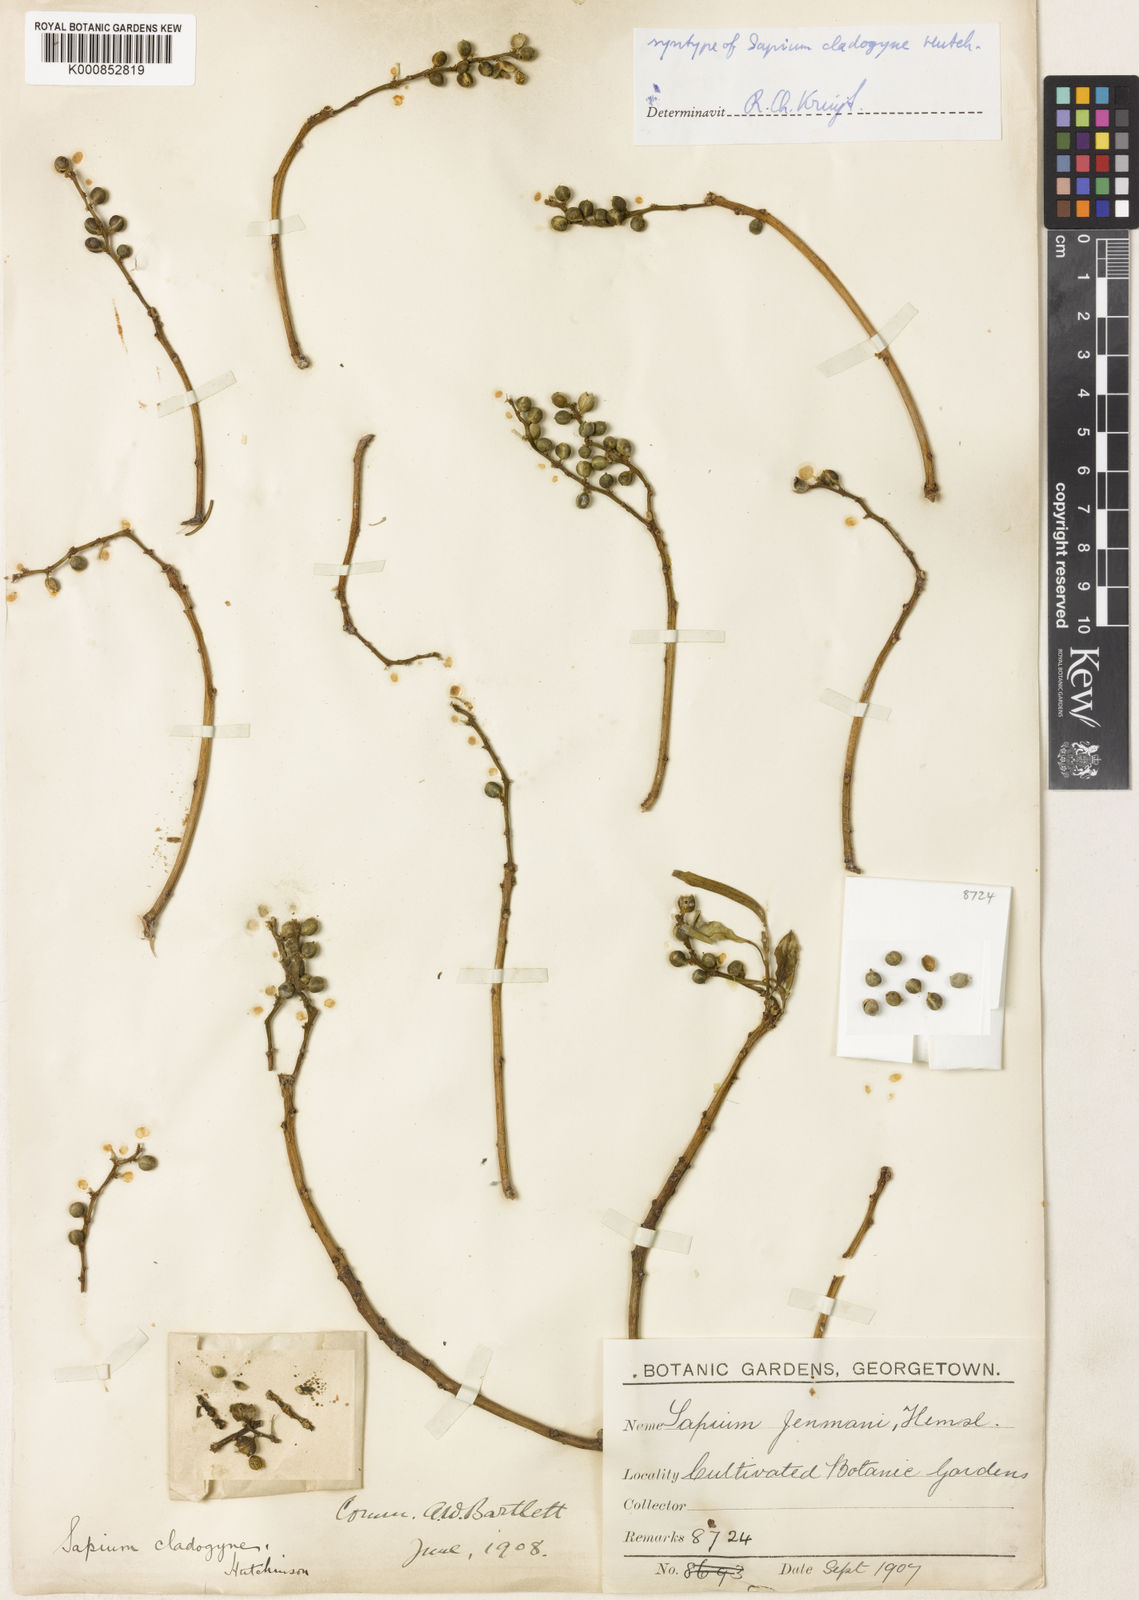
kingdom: Plantae
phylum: Tracheophyta
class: Magnoliopsida
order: Malpighiales
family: Euphorbiaceae
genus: Sapium
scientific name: Sapium jenmannii
